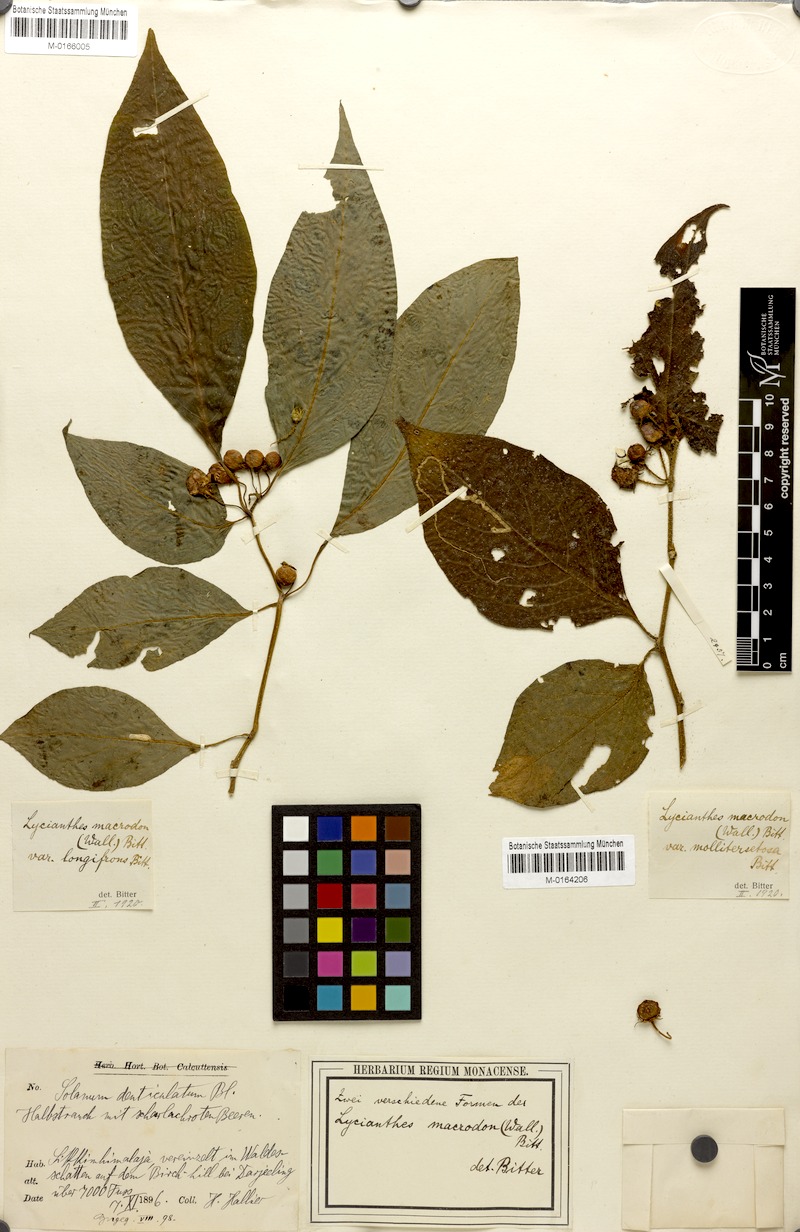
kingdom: Plantae
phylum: Tracheophyta
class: Magnoliopsida
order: Solanales
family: Solanaceae
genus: Lycianthes
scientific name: Lycianthes macrodon
